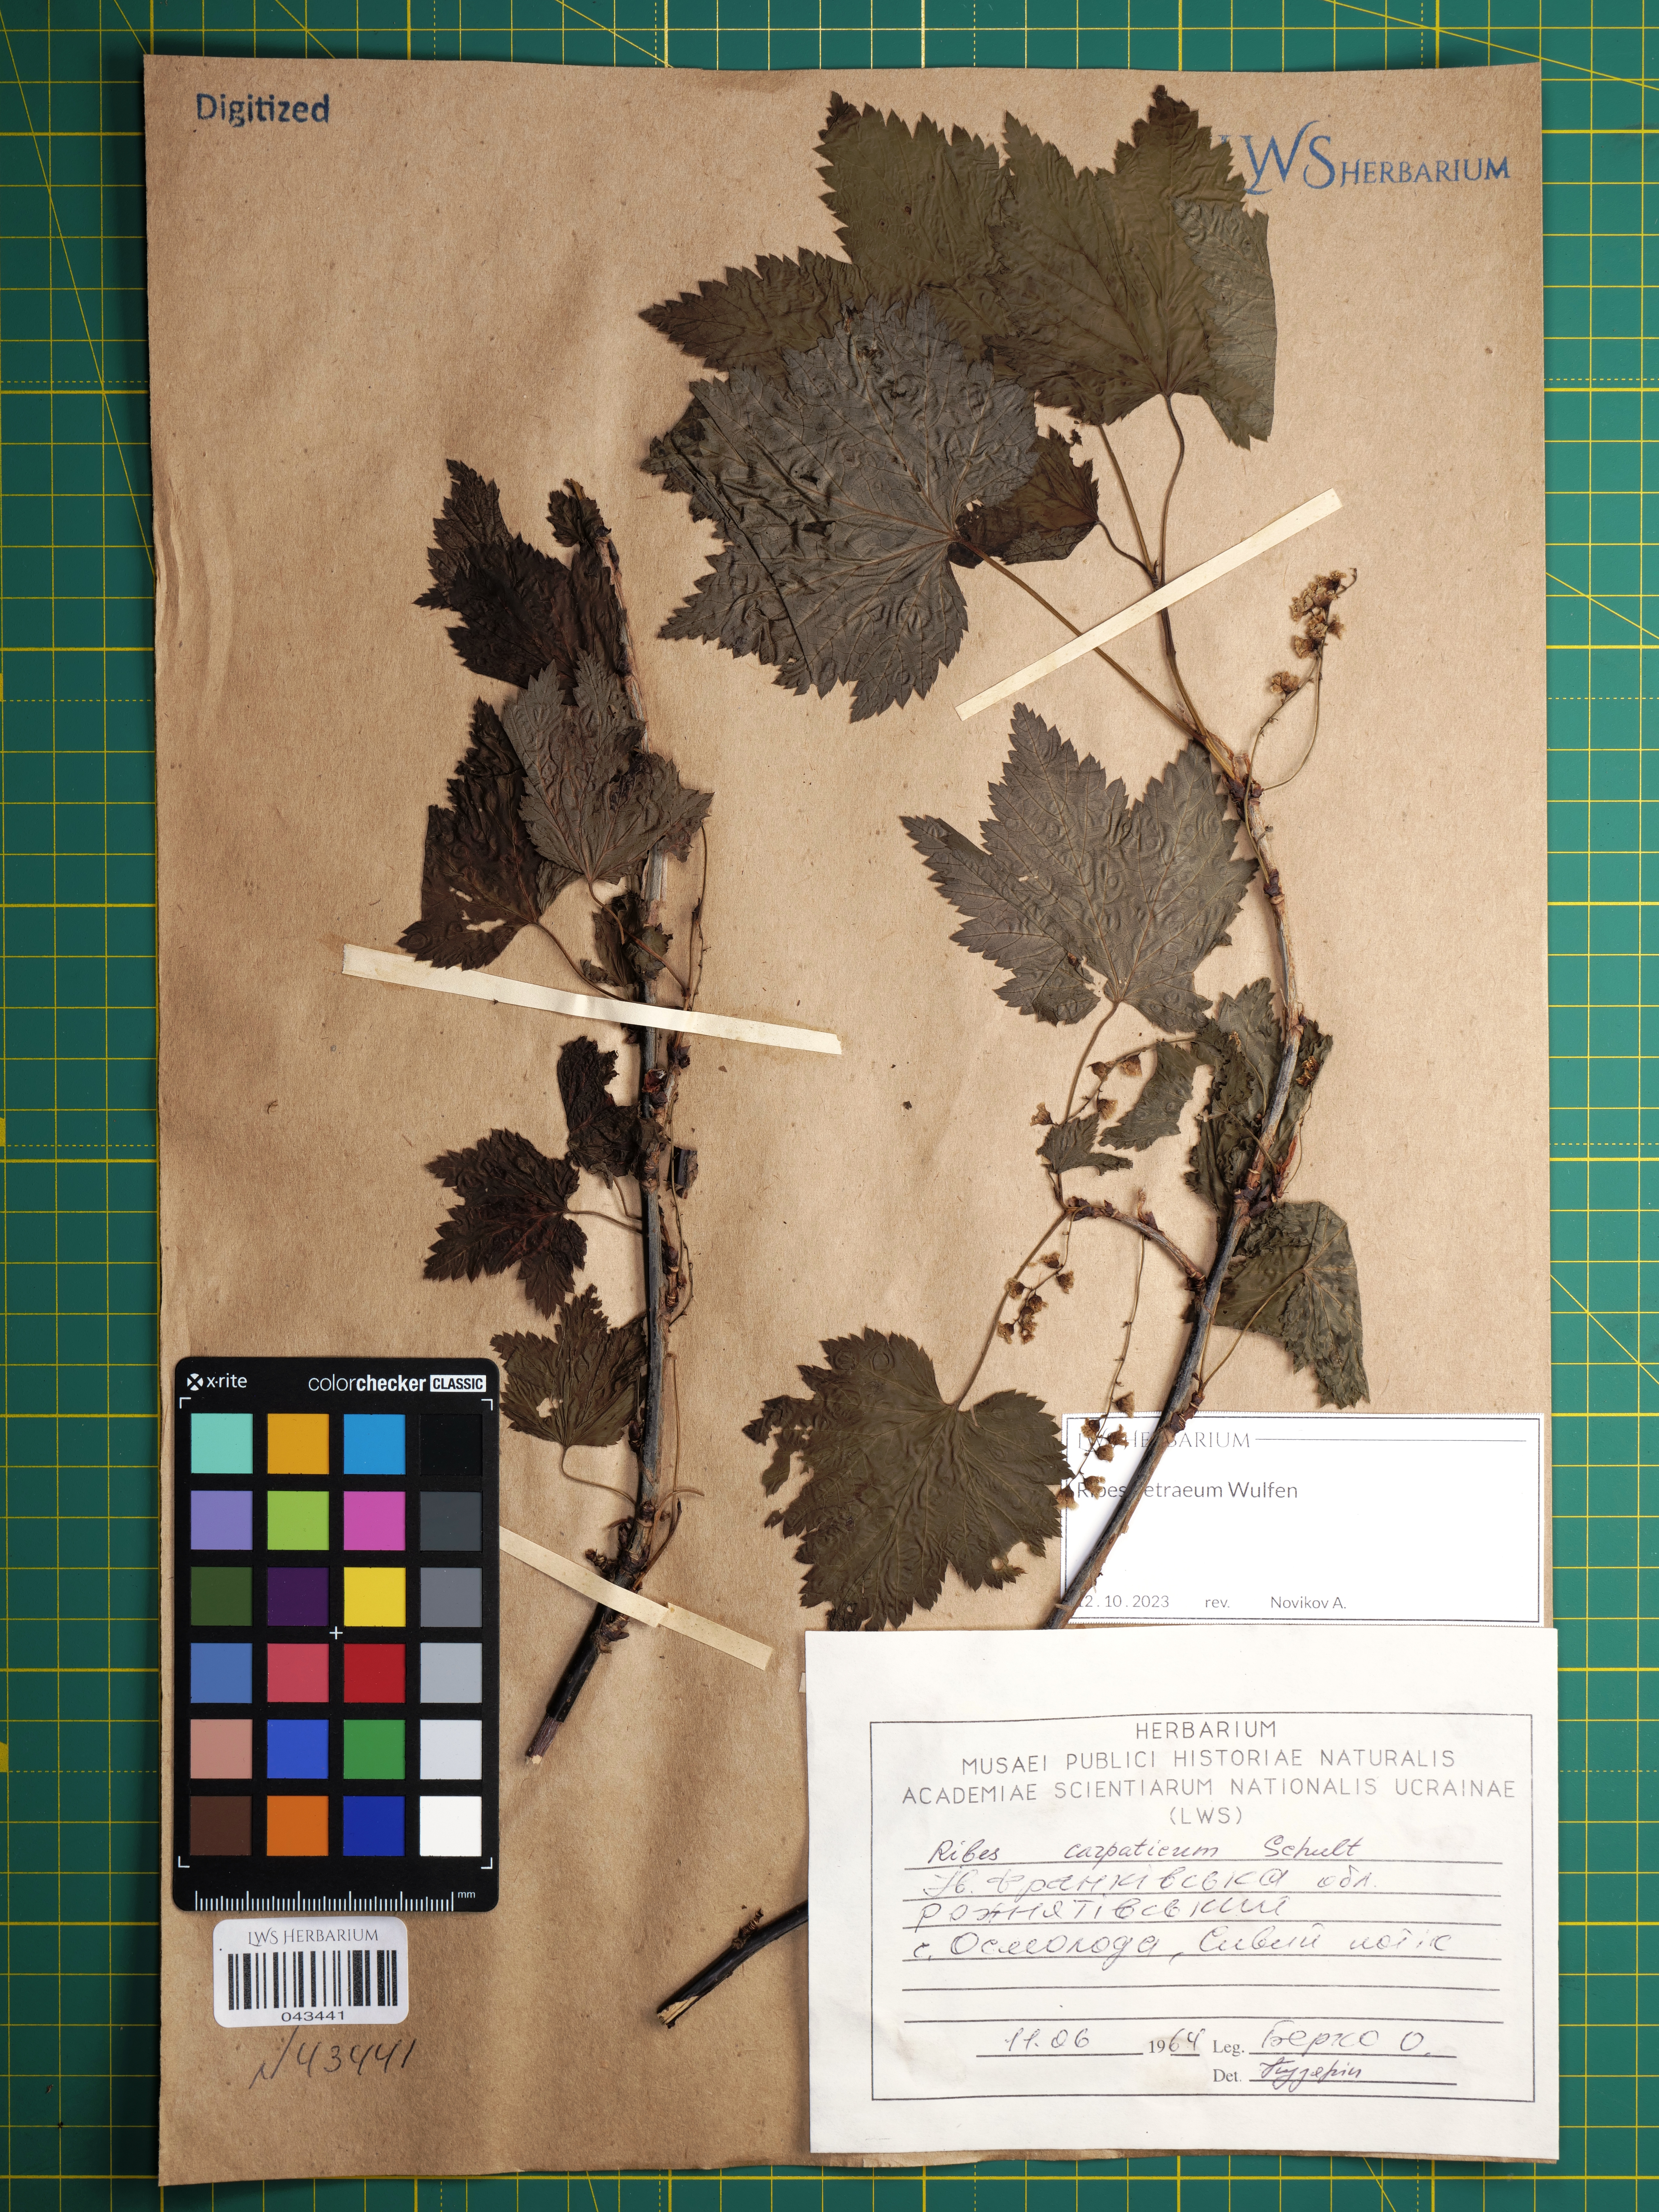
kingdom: Plantae
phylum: Tracheophyta
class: Magnoliopsida
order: Saxifragales
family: Grossulariaceae
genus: Ribes
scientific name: Ribes petraeum
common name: Rock currant
